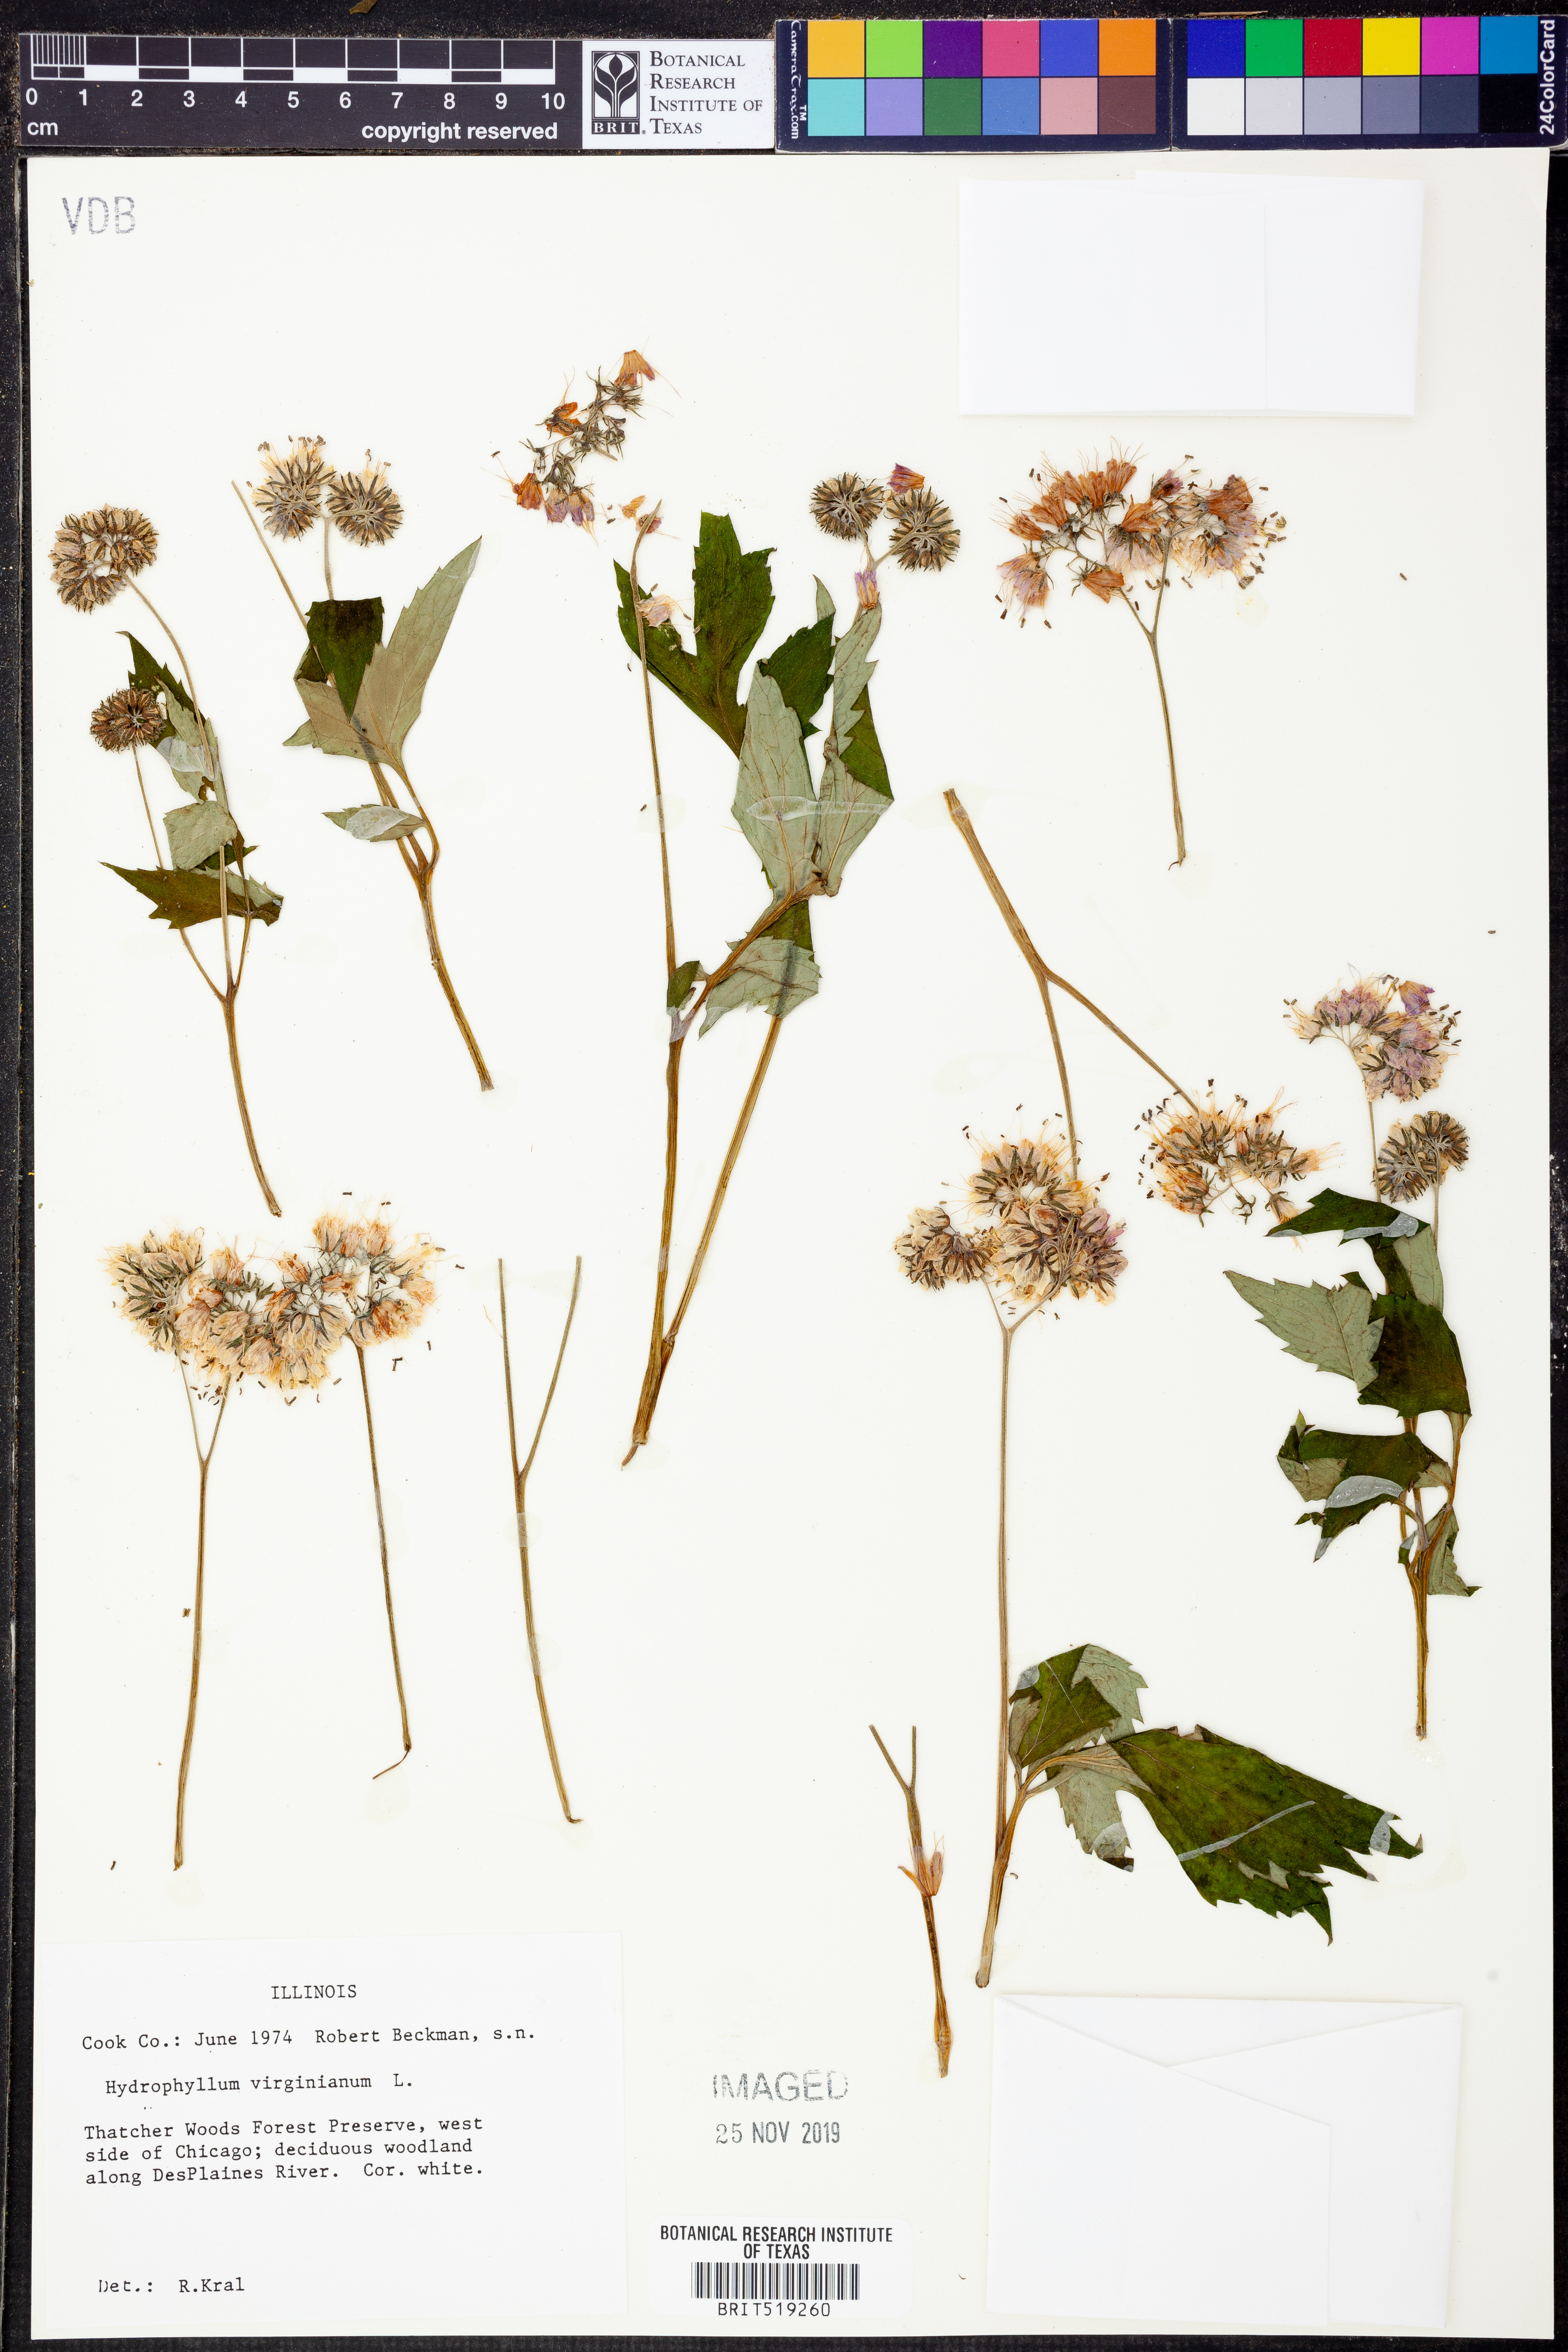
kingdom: Plantae
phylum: Tracheophyta
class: Magnoliopsida
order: Boraginales
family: Hydrophyllaceae
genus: Hydrophyllum
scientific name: Hydrophyllum virginianum
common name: Virginia waterleaf
